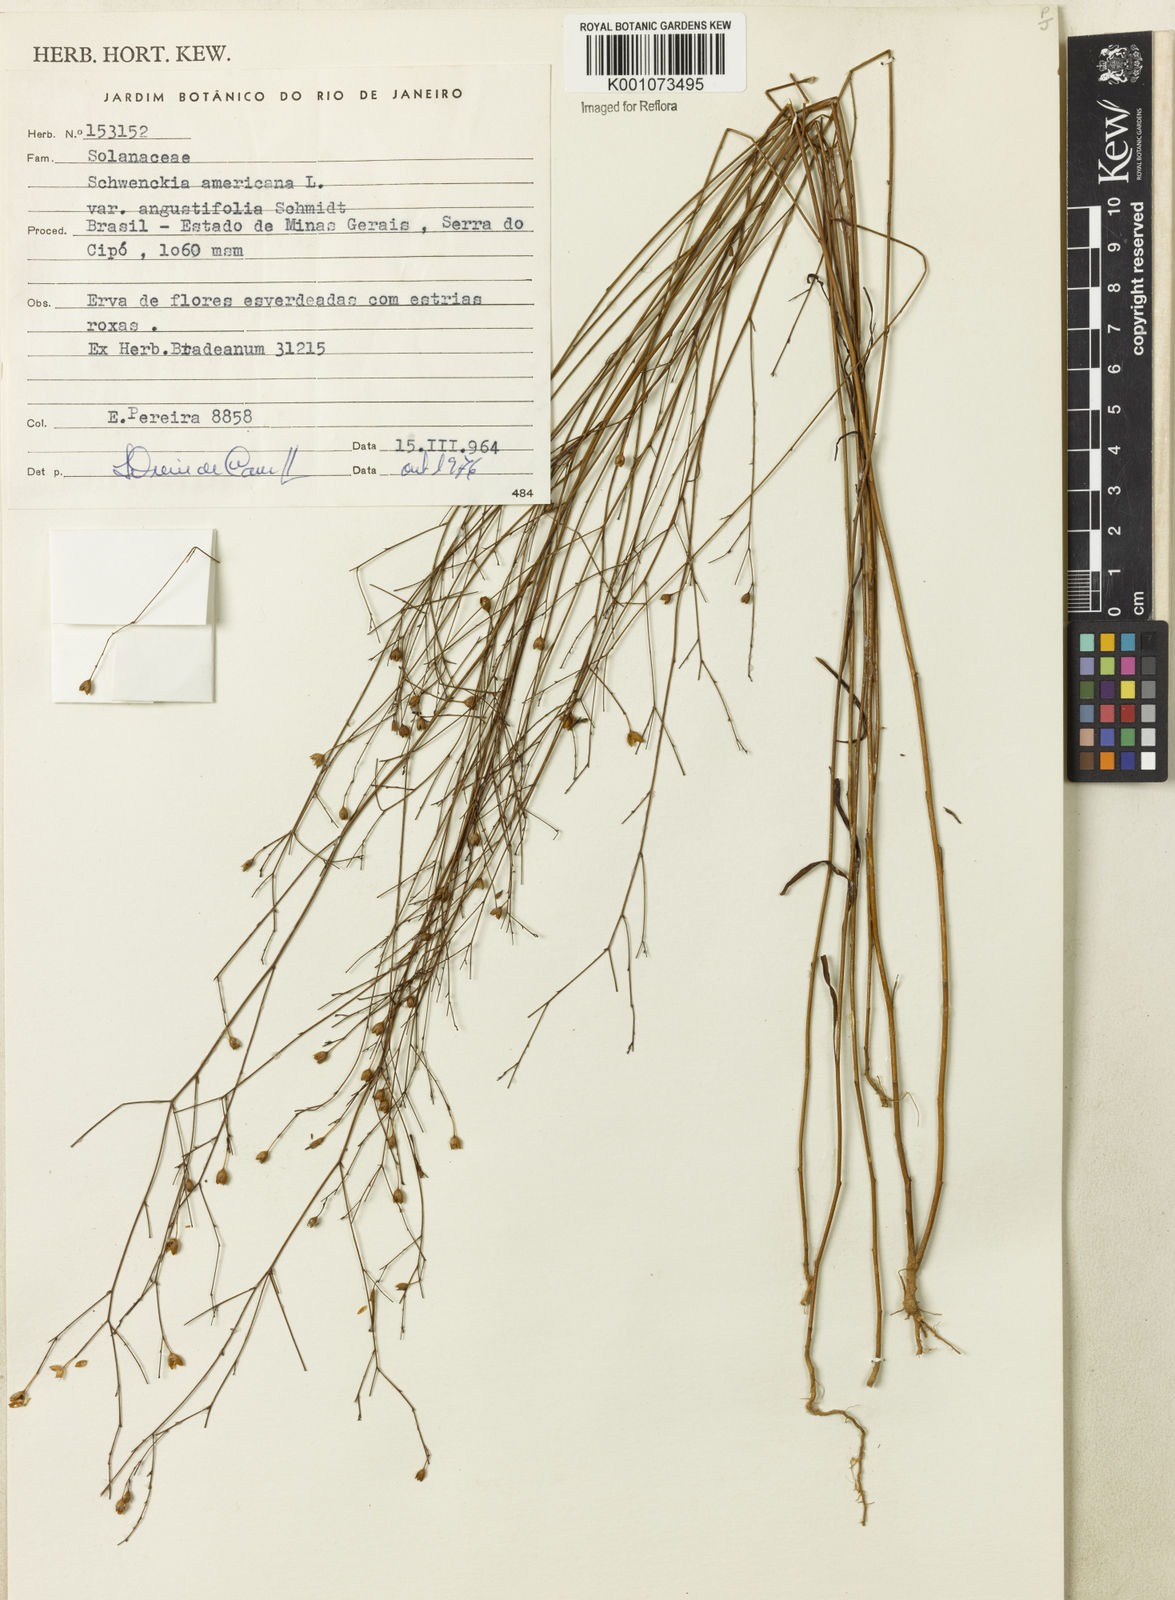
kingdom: Plantae
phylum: Tracheophyta
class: Magnoliopsida
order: Solanales
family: Solanaceae
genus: Schwenckia
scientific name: Schwenckia americana
